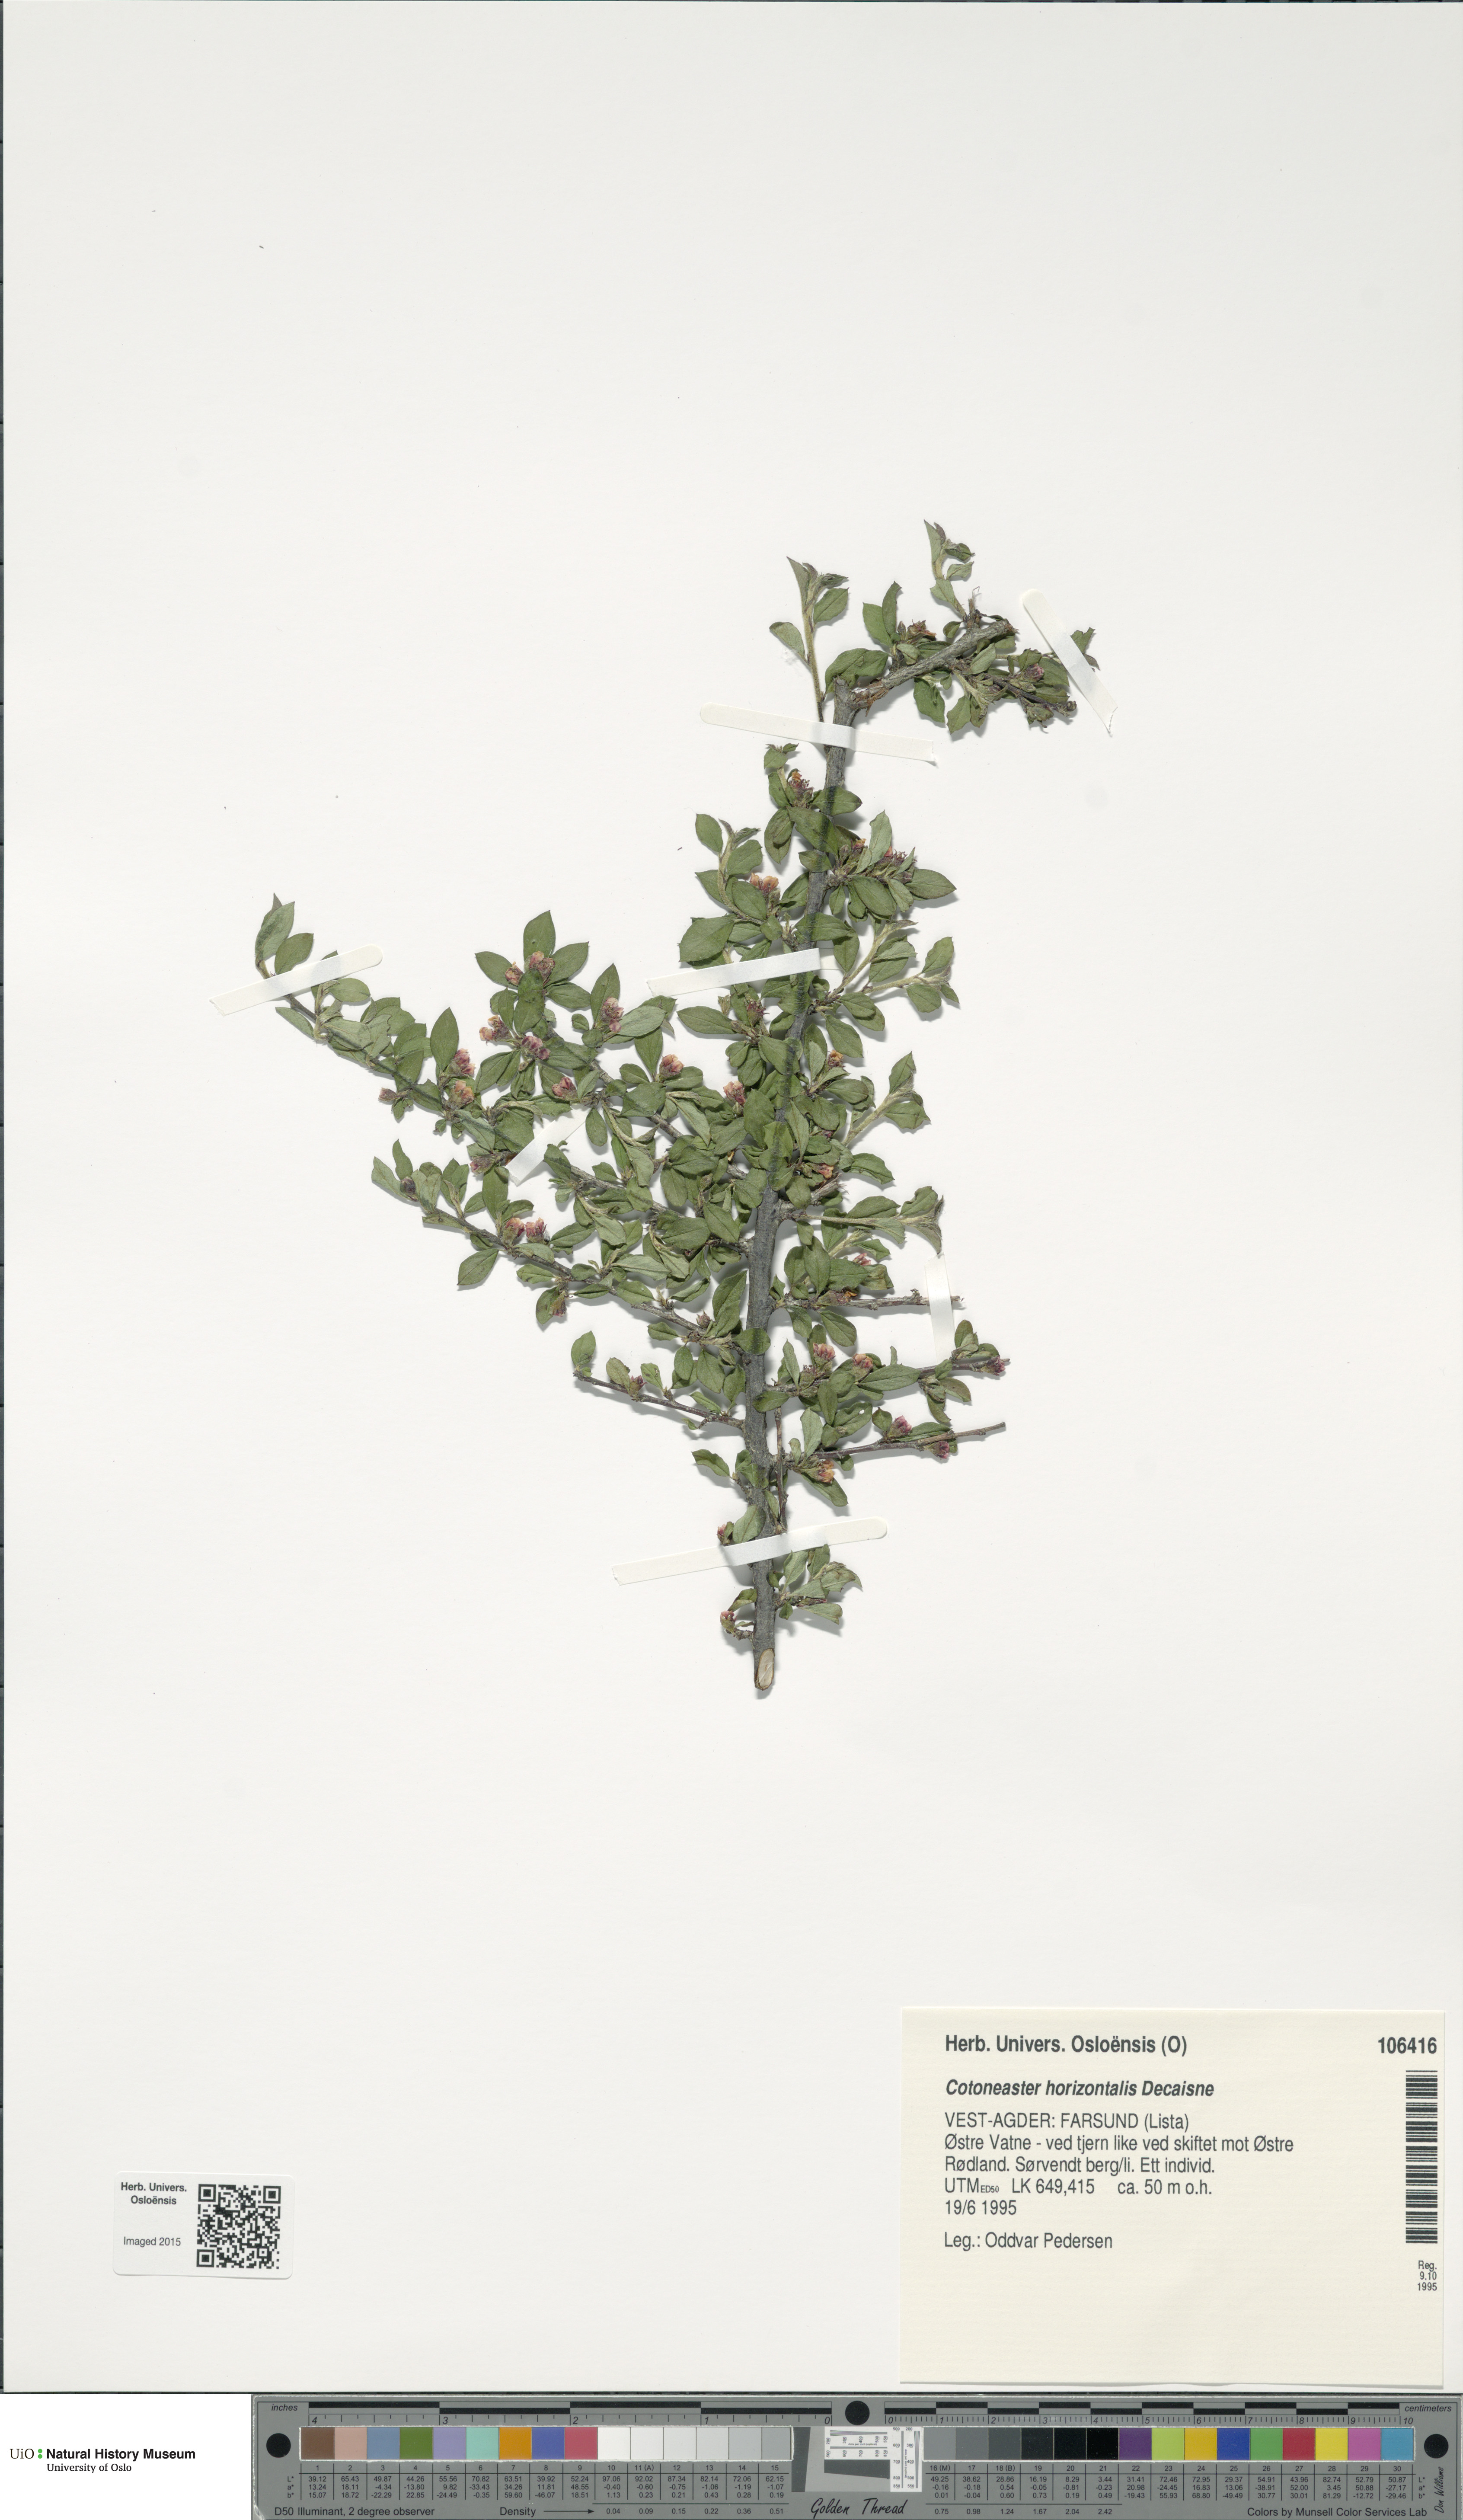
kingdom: Plantae
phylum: Tracheophyta
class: Magnoliopsida
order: Rosales
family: Rosaceae
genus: Cotoneaster
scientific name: Cotoneaster horizontalis
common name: Wall cotoneaster
